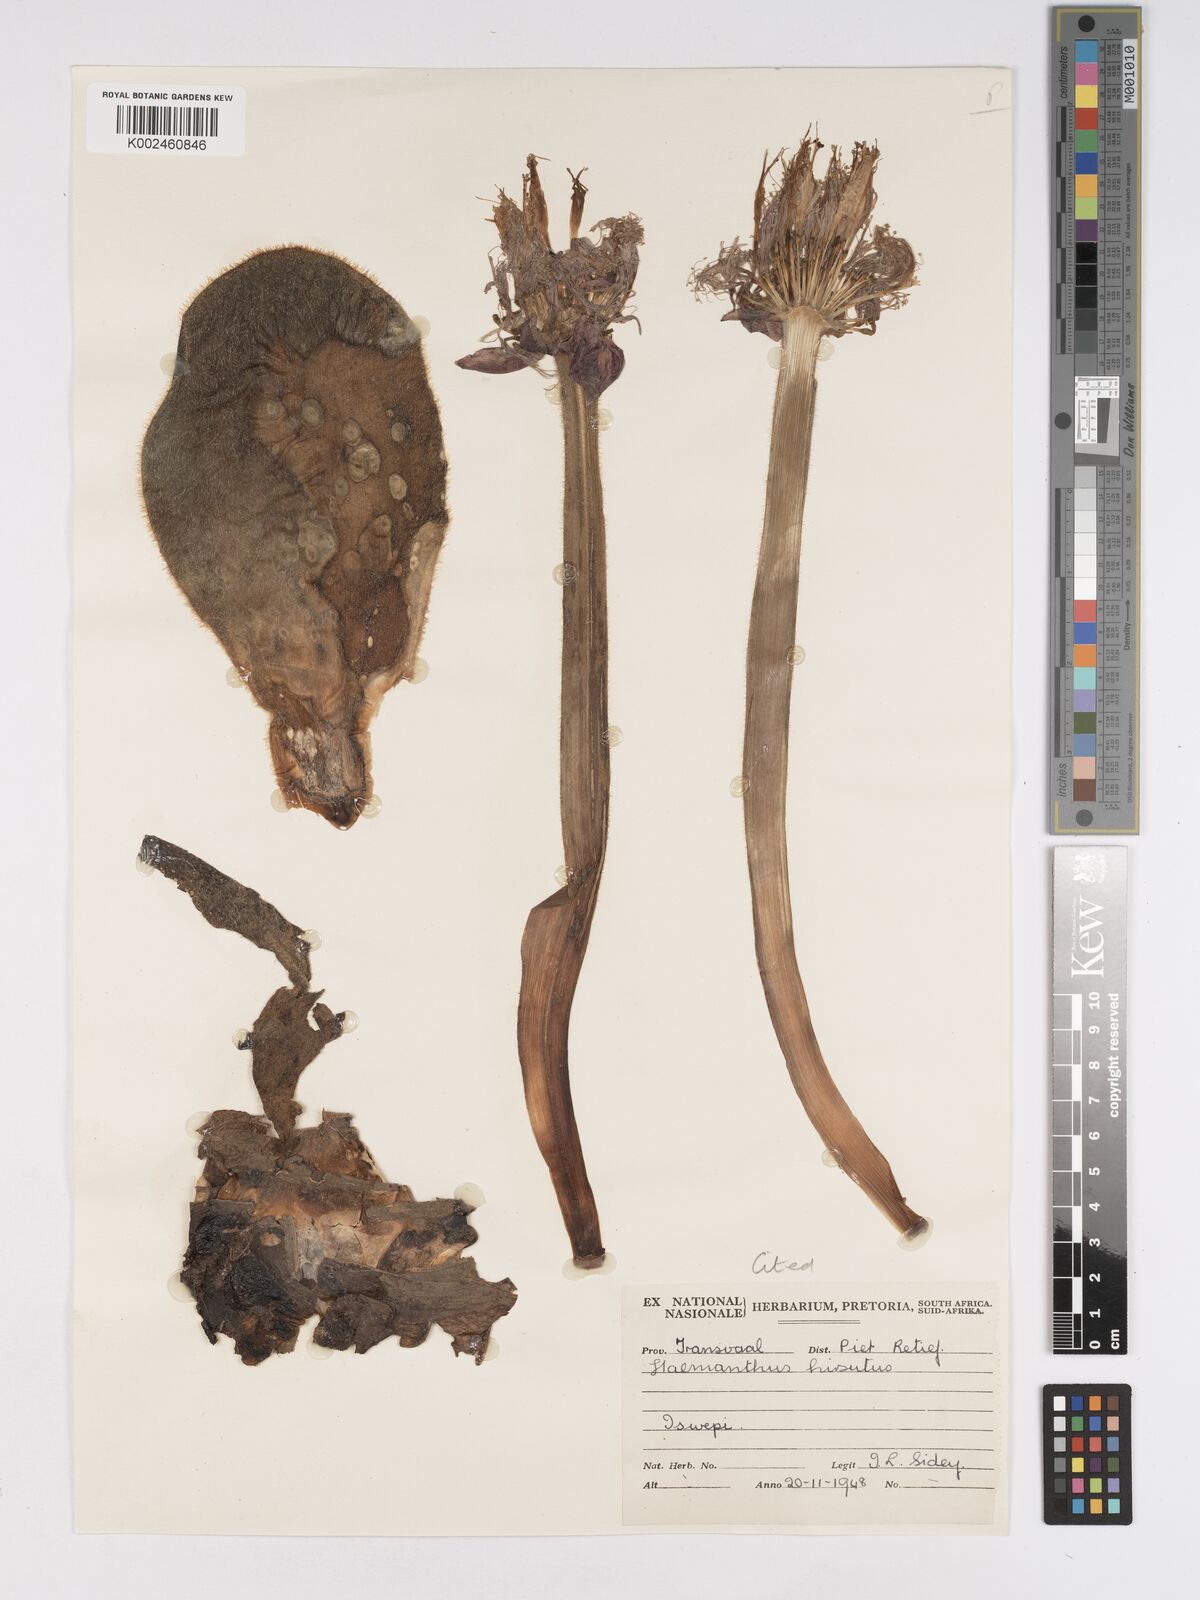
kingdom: Plantae
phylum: Tracheophyta
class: Liliopsida
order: Asparagales
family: Amaryllidaceae
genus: Haemanthus
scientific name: Haemanthus humilis
